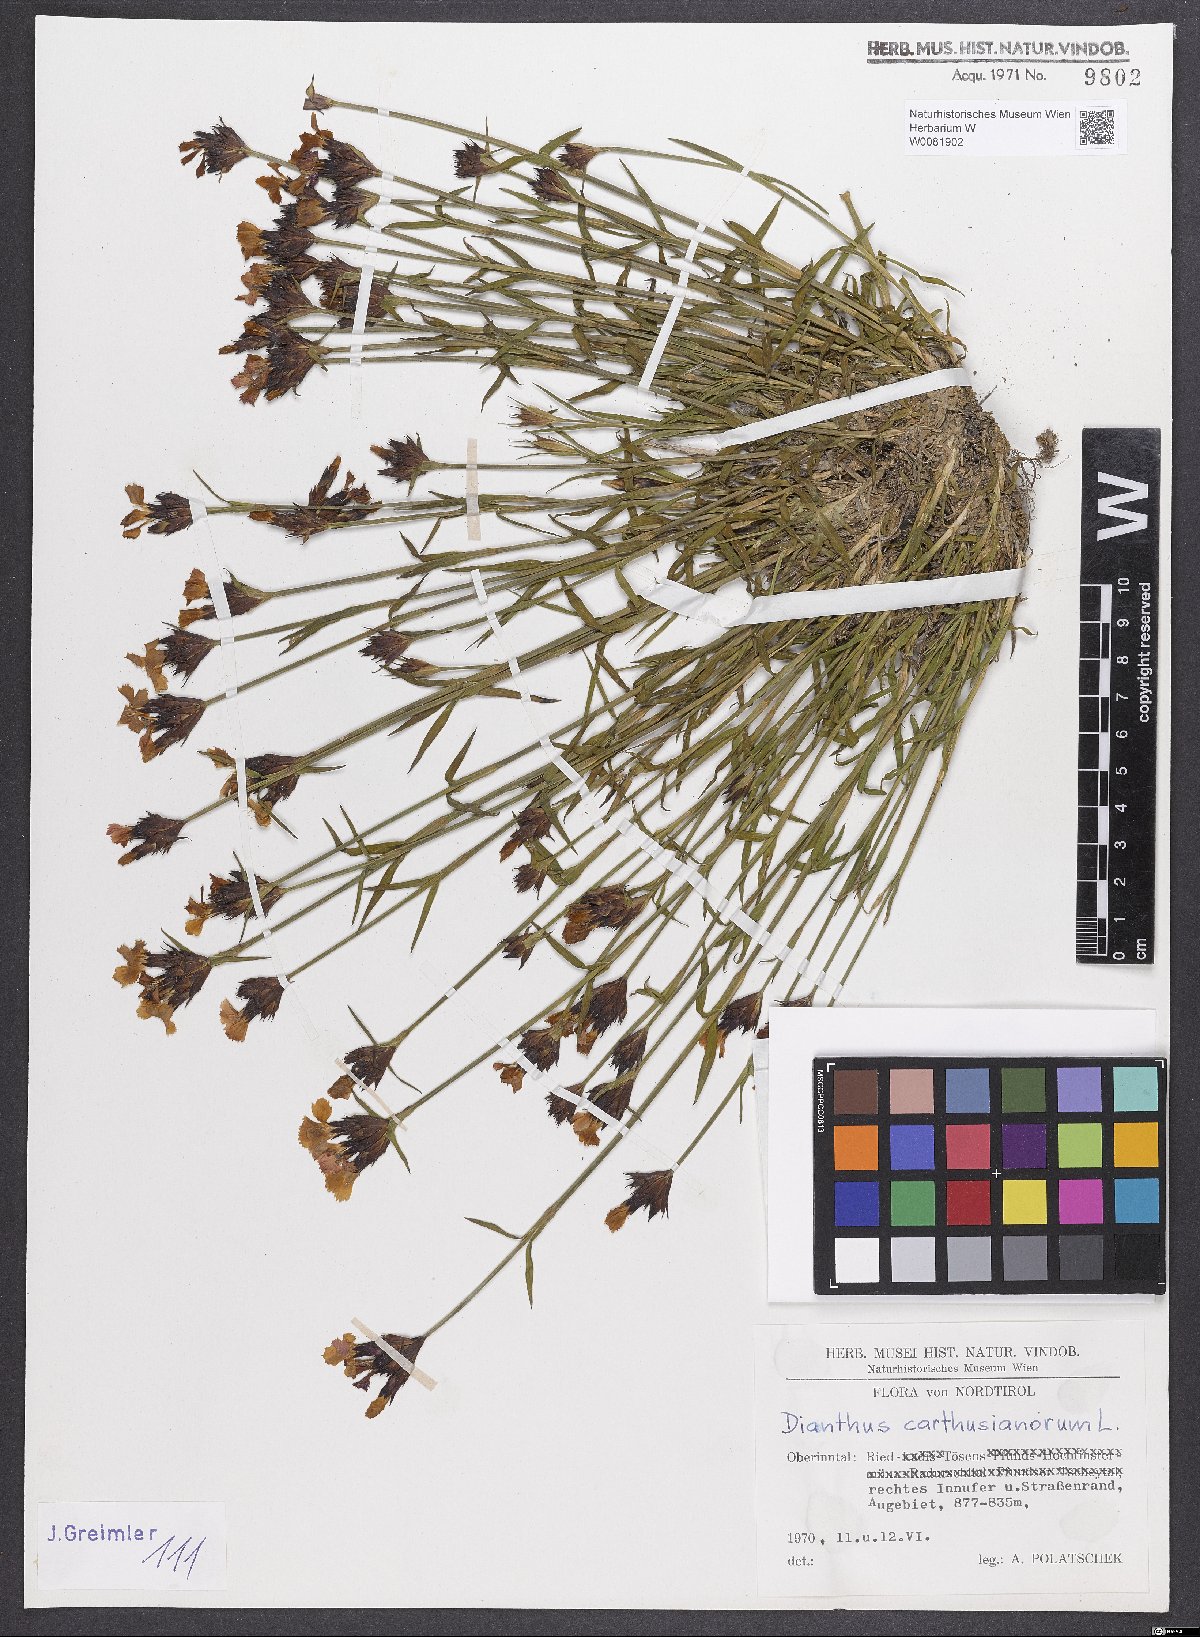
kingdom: Plantae
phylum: Tracheophyta
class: Magnoliopsida
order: Caryophyllales
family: Caryophyllaceae
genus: Dianthus
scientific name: Dianthus carthusianorum
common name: Carthusian pink
